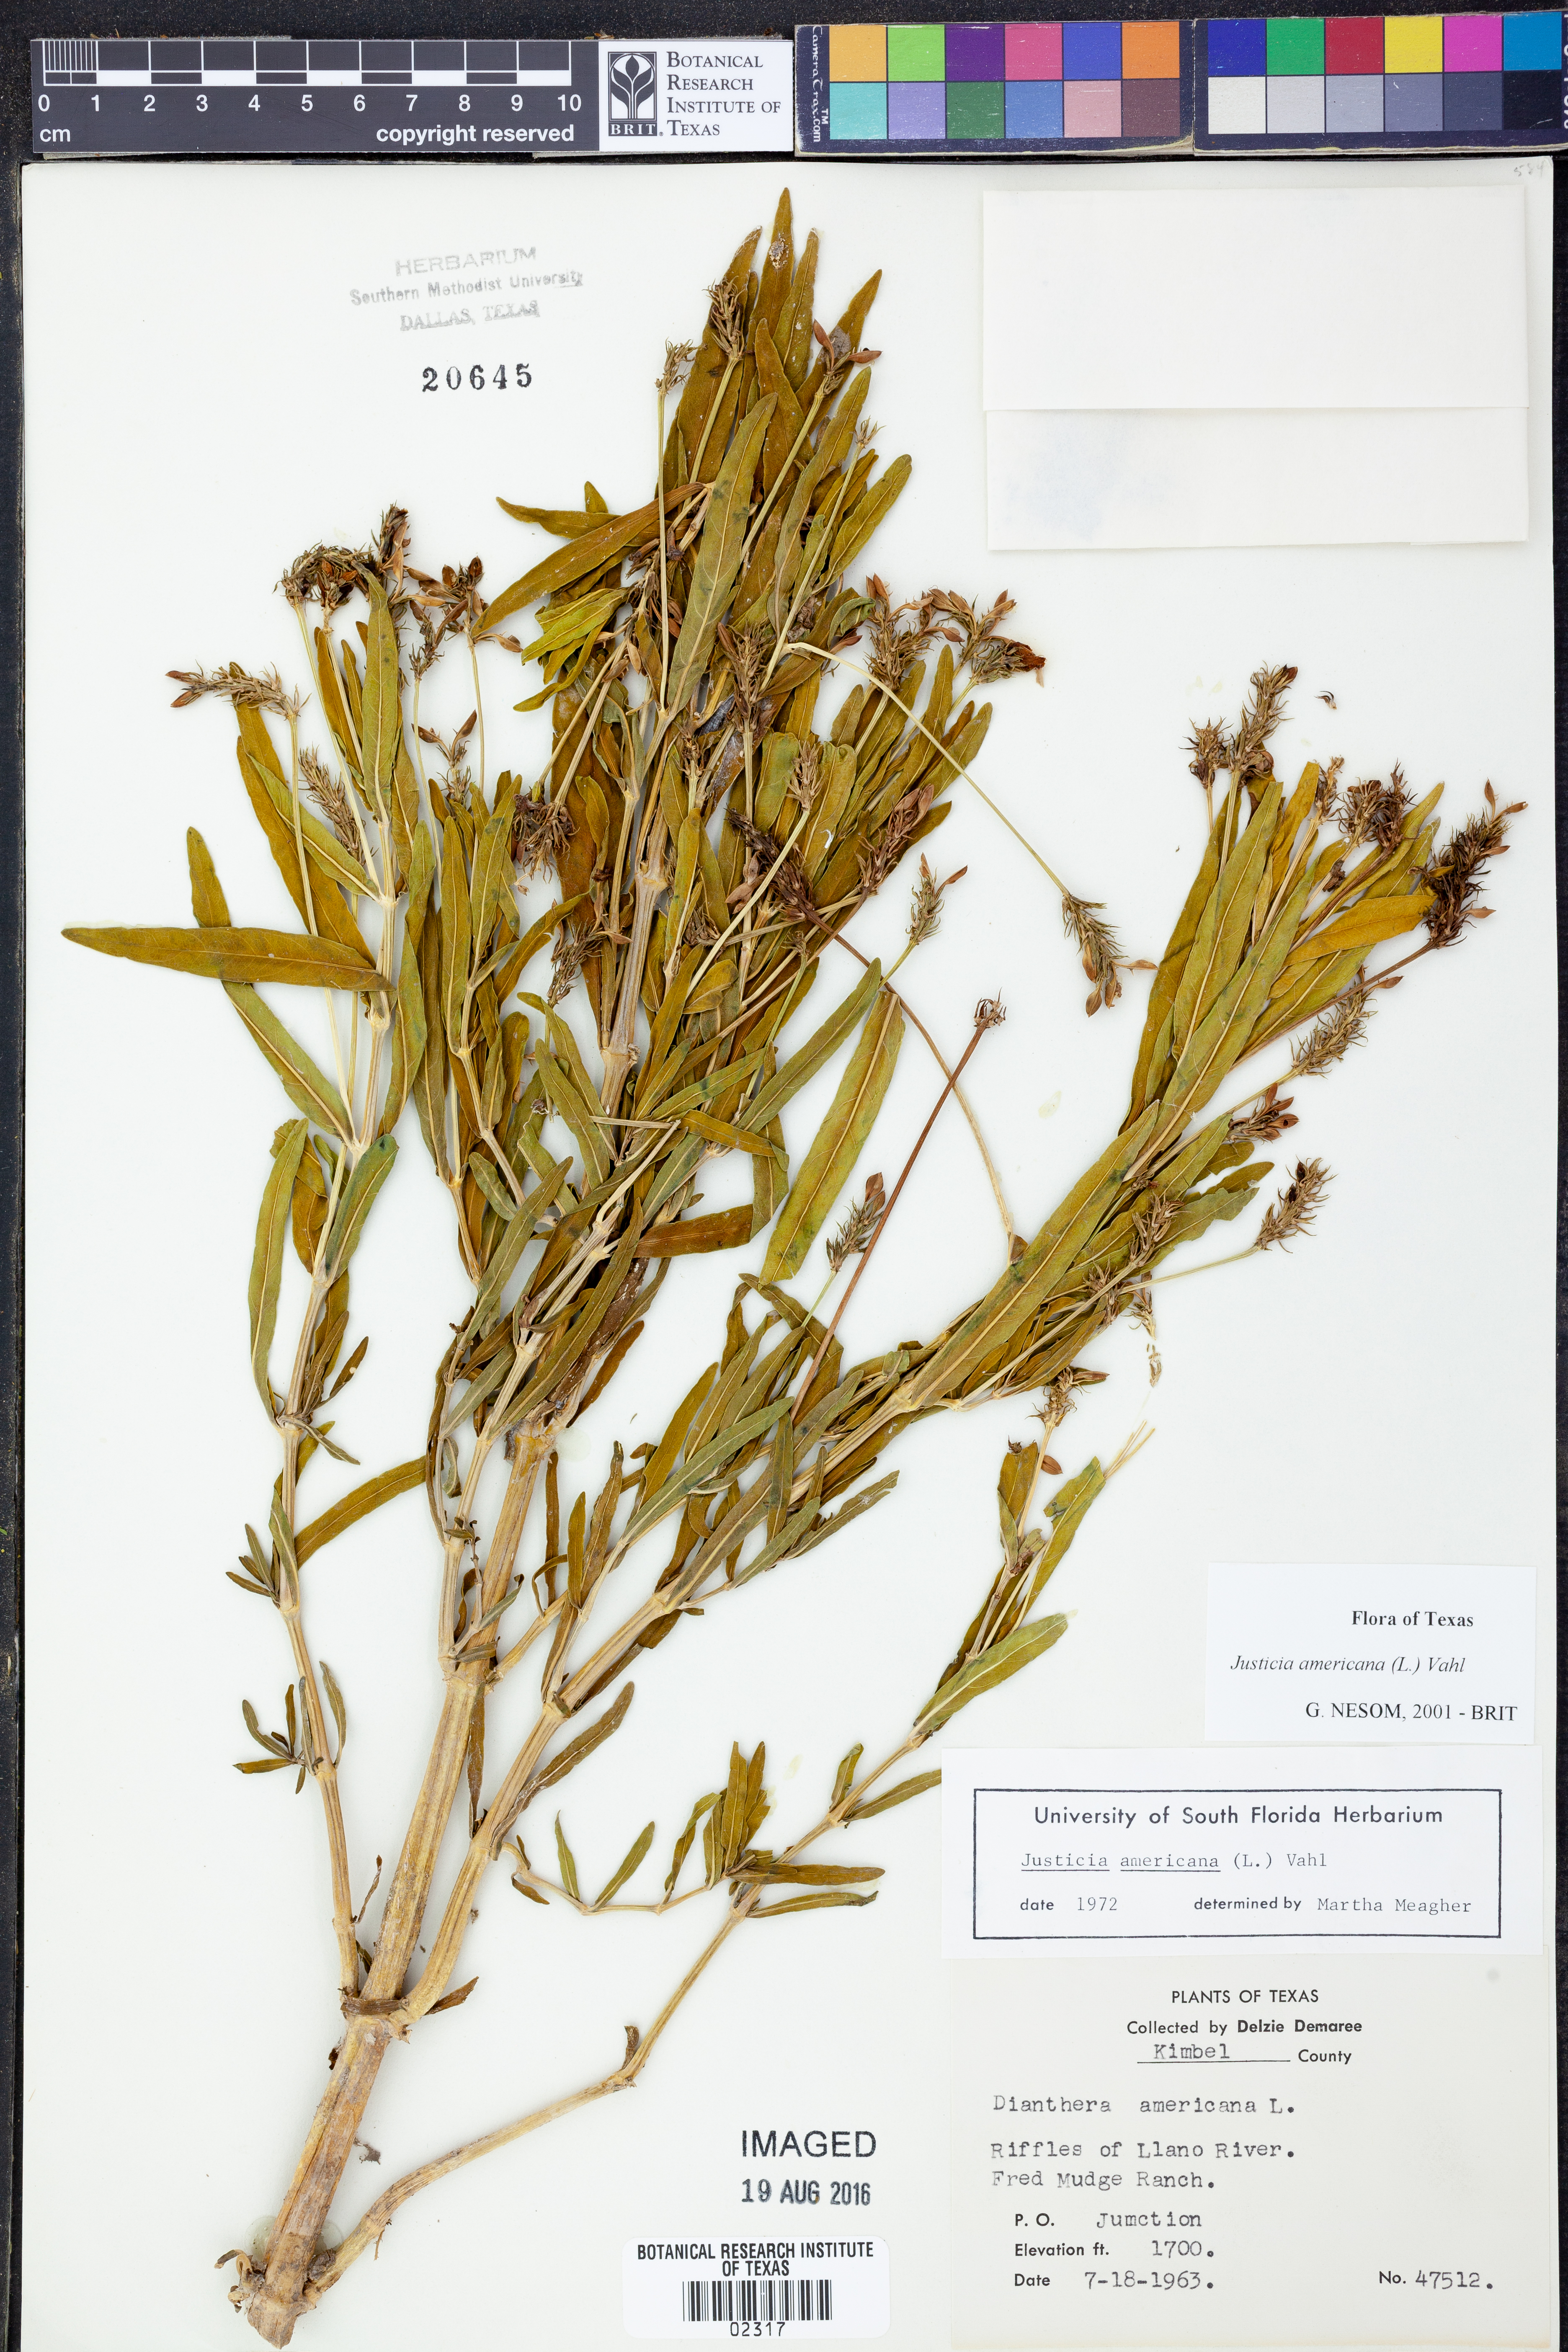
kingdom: Plantae
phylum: Tracheophyta
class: Magnoliopsida
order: Lamiales
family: Acanthaceae
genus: Dianthera
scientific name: Dianthera americana
